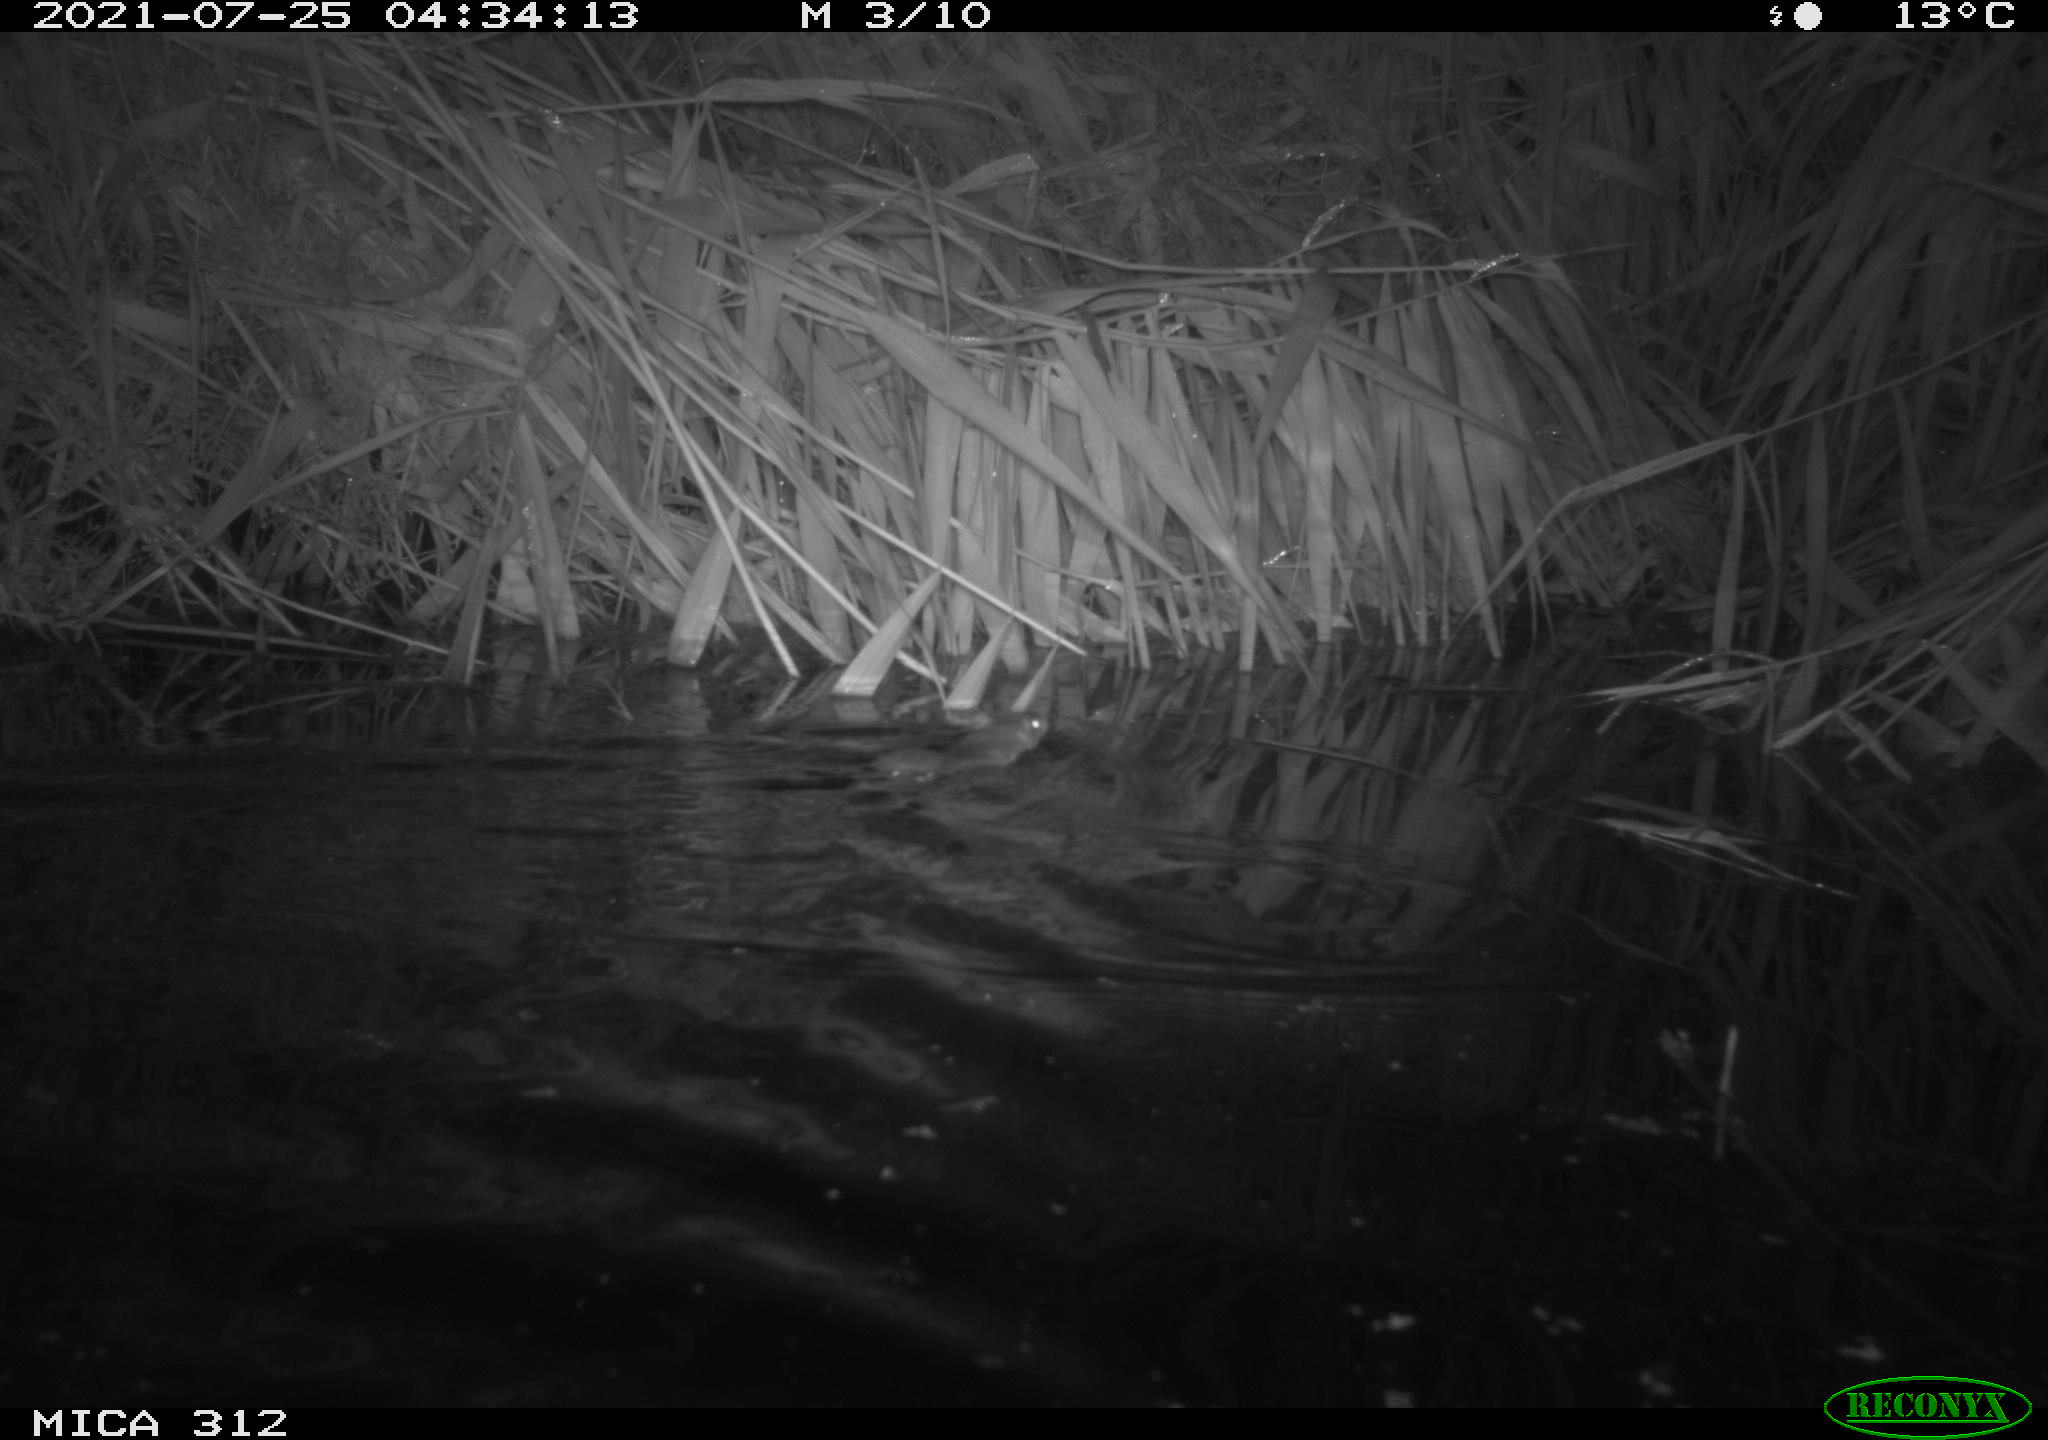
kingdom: Animalia
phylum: Chordata
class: Mammalia
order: Rodentia
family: Muridae
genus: Rattus
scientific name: Rattus norvegicus
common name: Brown rat
